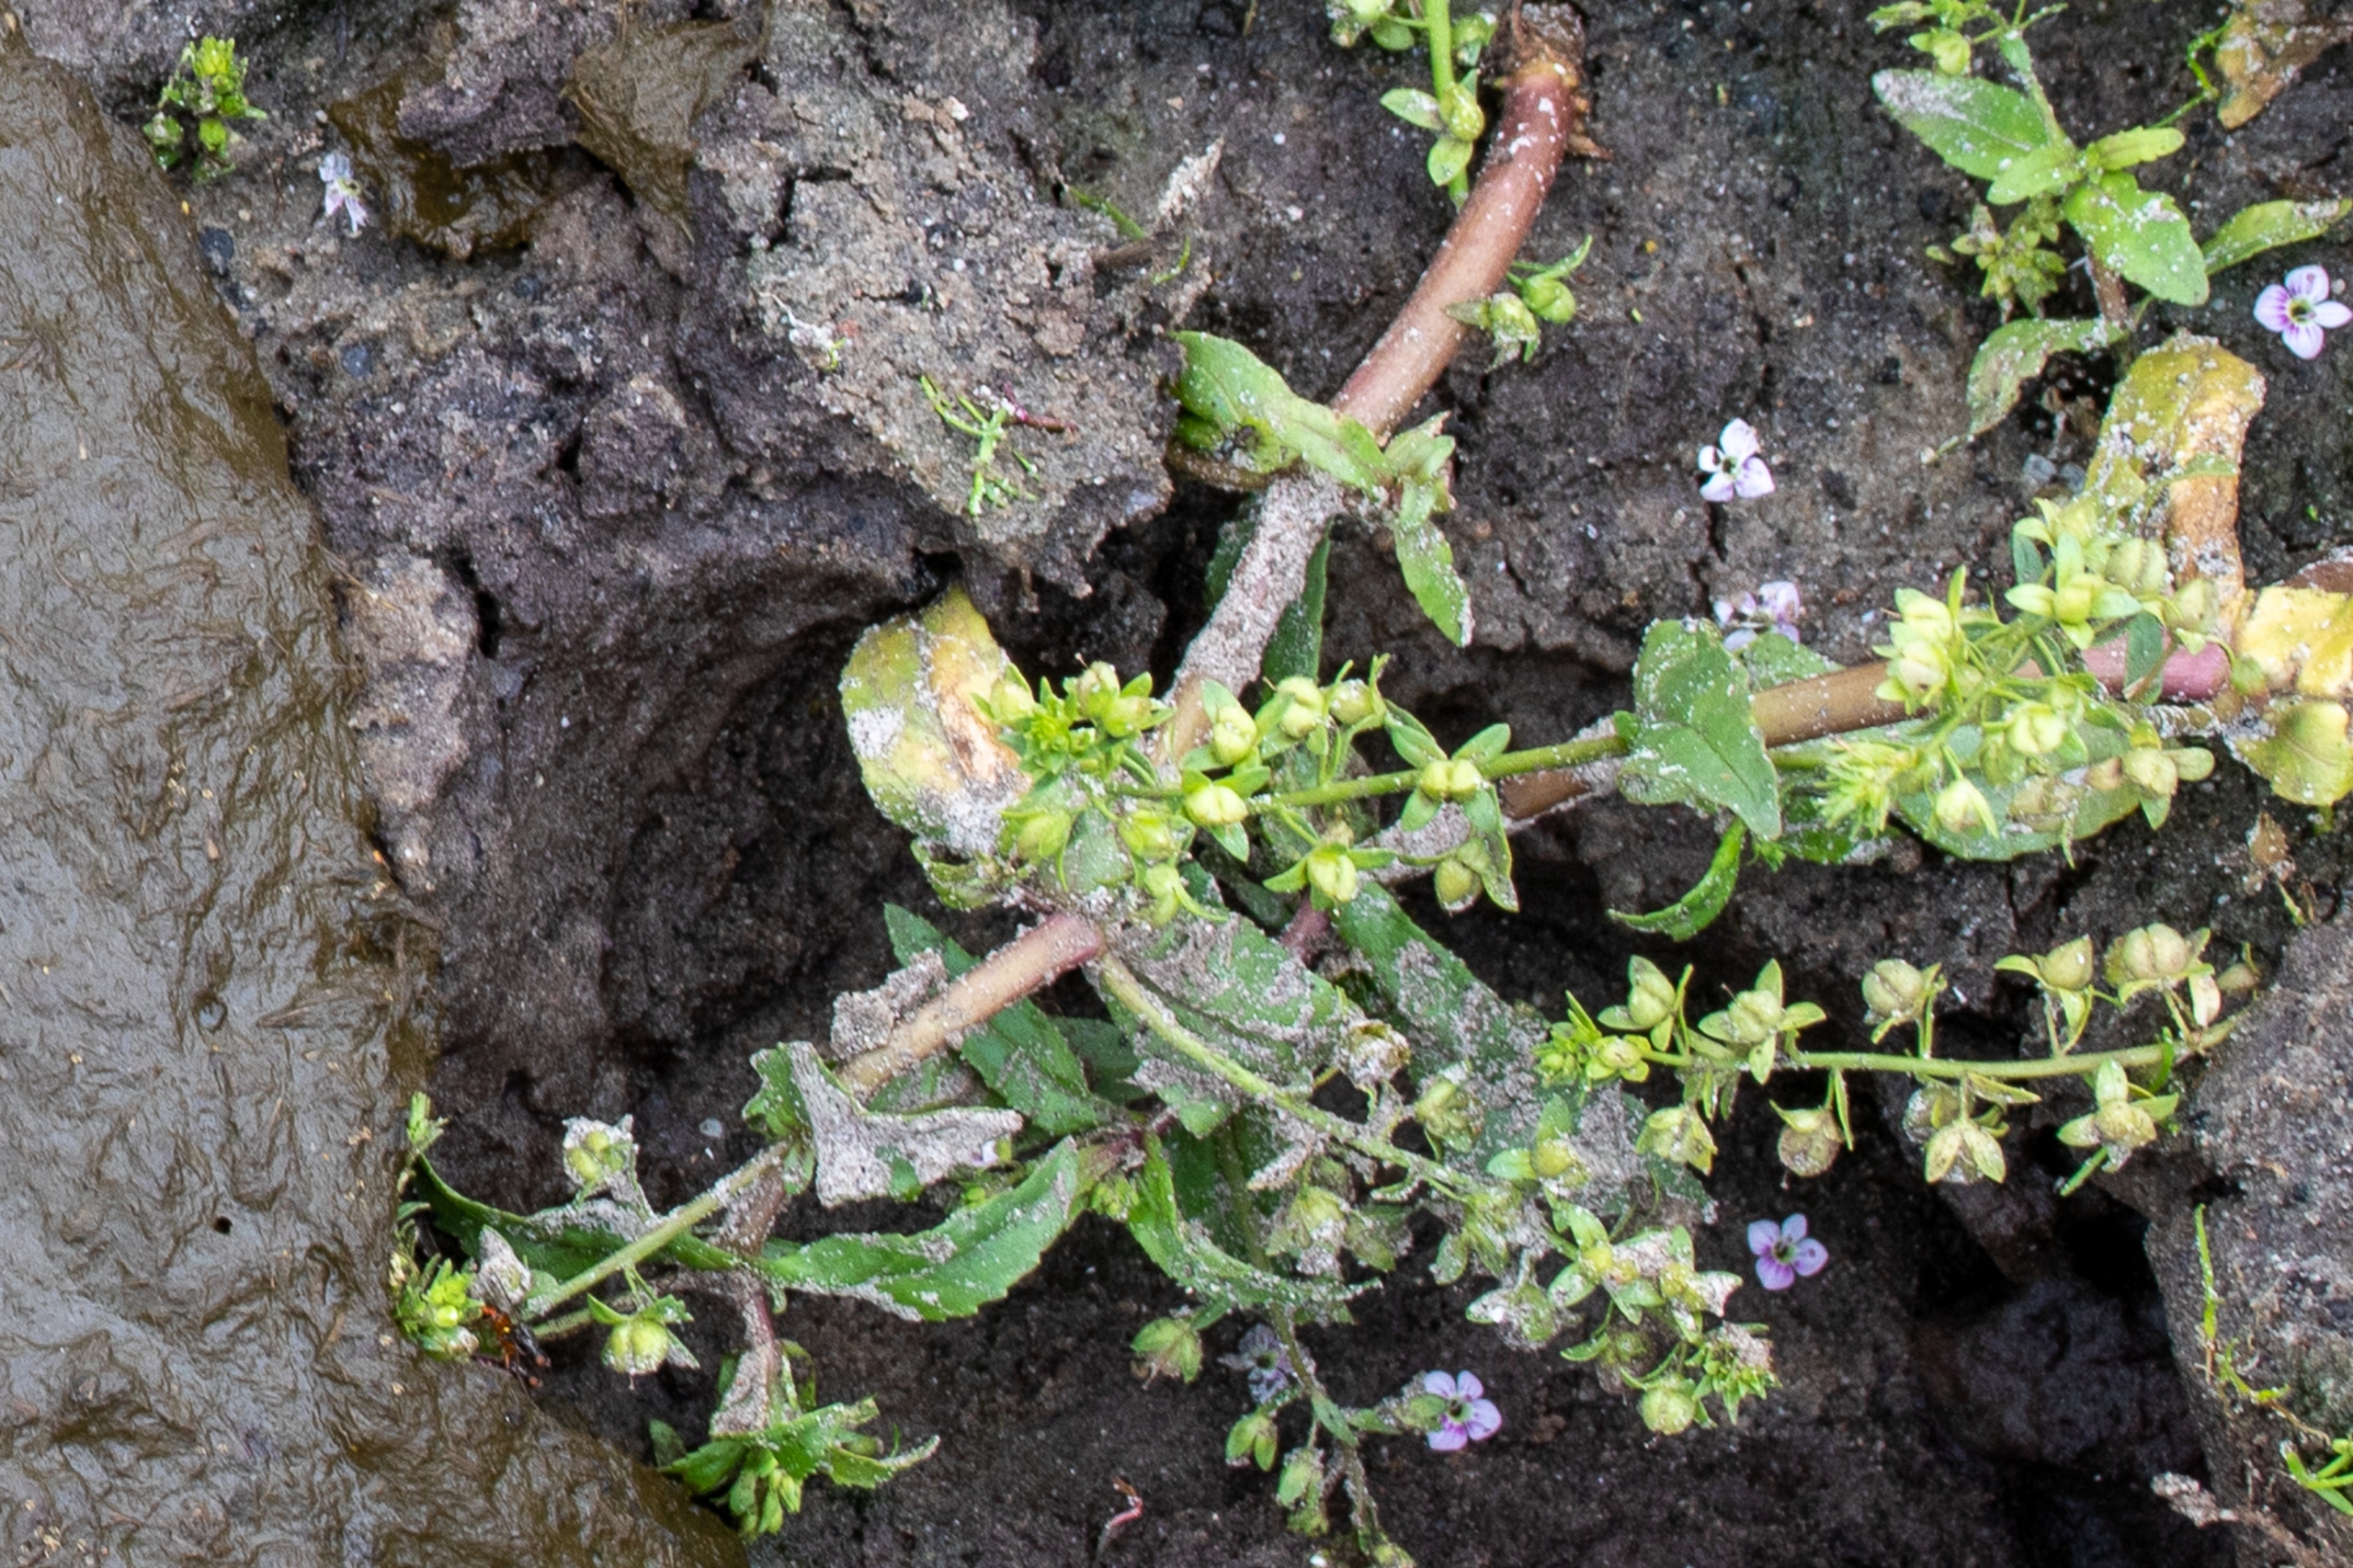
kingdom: Plantae
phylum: Tracheophyta
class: Magnoliopsida
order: Lamiales
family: Plantaginaceae
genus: Veronica
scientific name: Veronica catenata
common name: Vand-ærenpris
